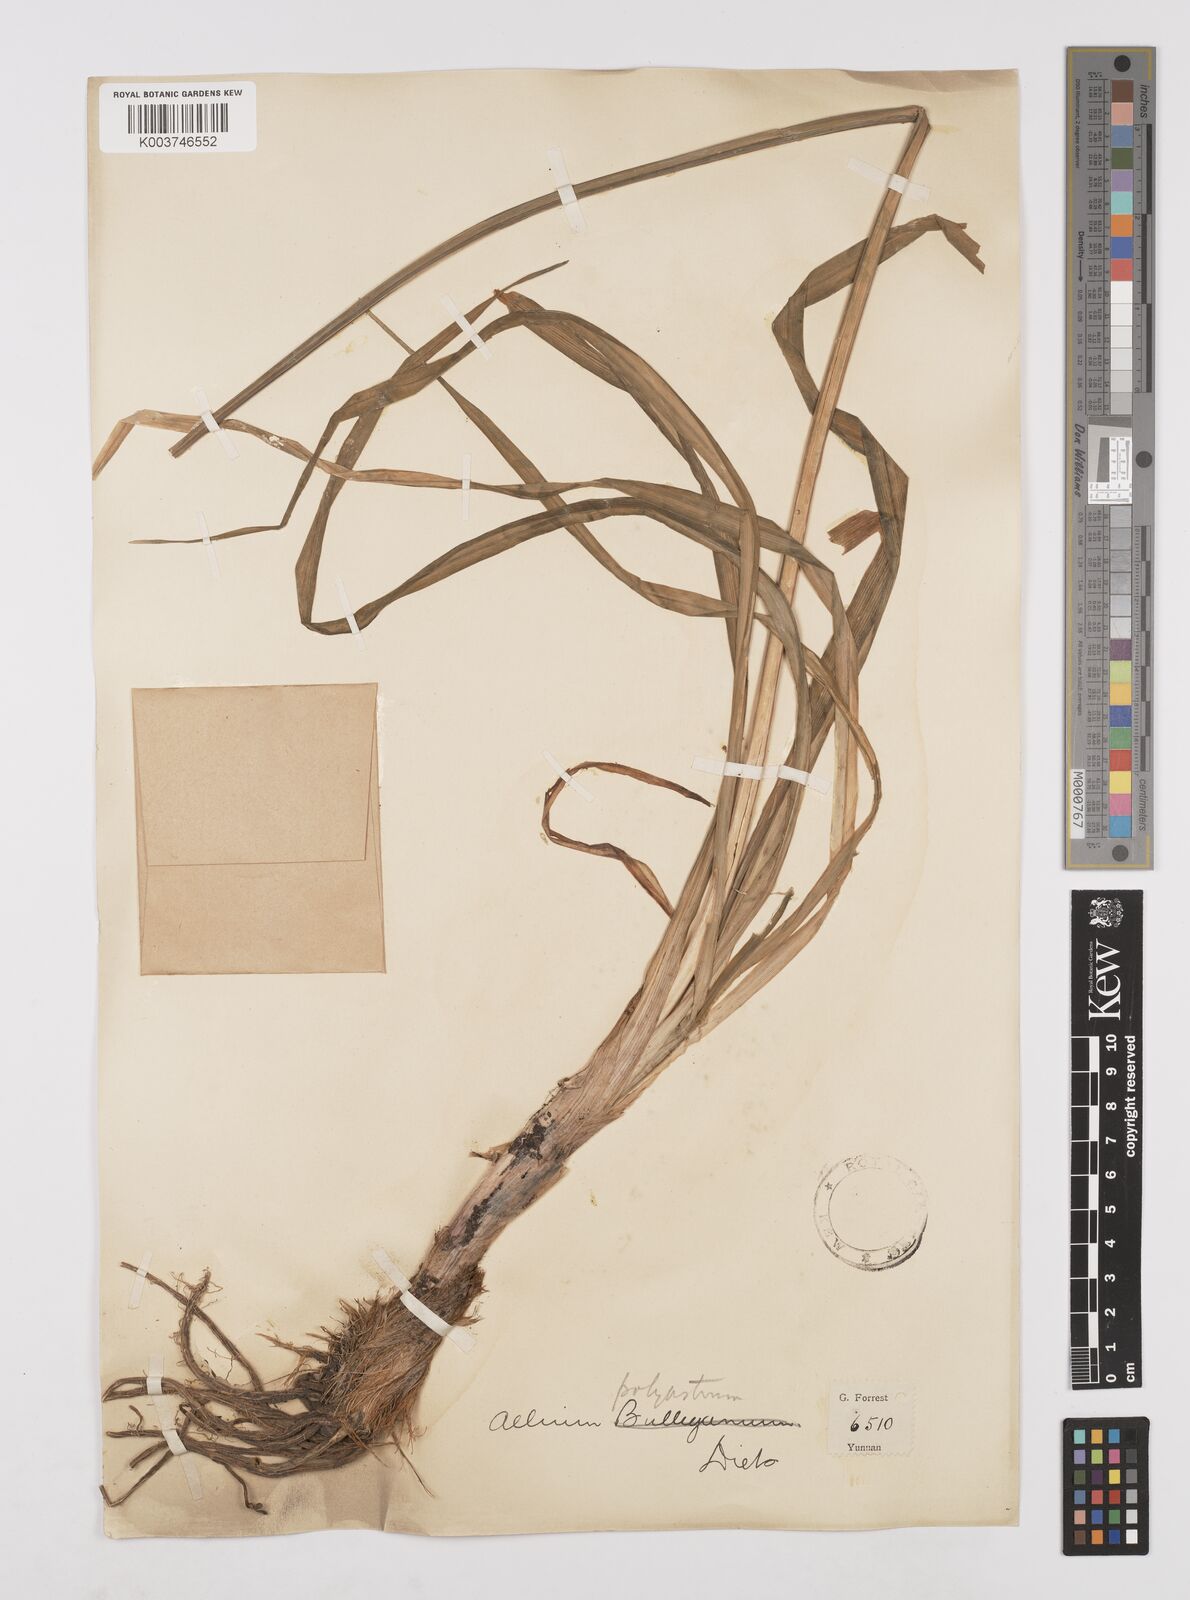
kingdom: Plantae
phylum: Tracheophyta
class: Liliopsida
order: Asparagales
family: Amaryllidaceae
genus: Allium
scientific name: Allium wallichii
